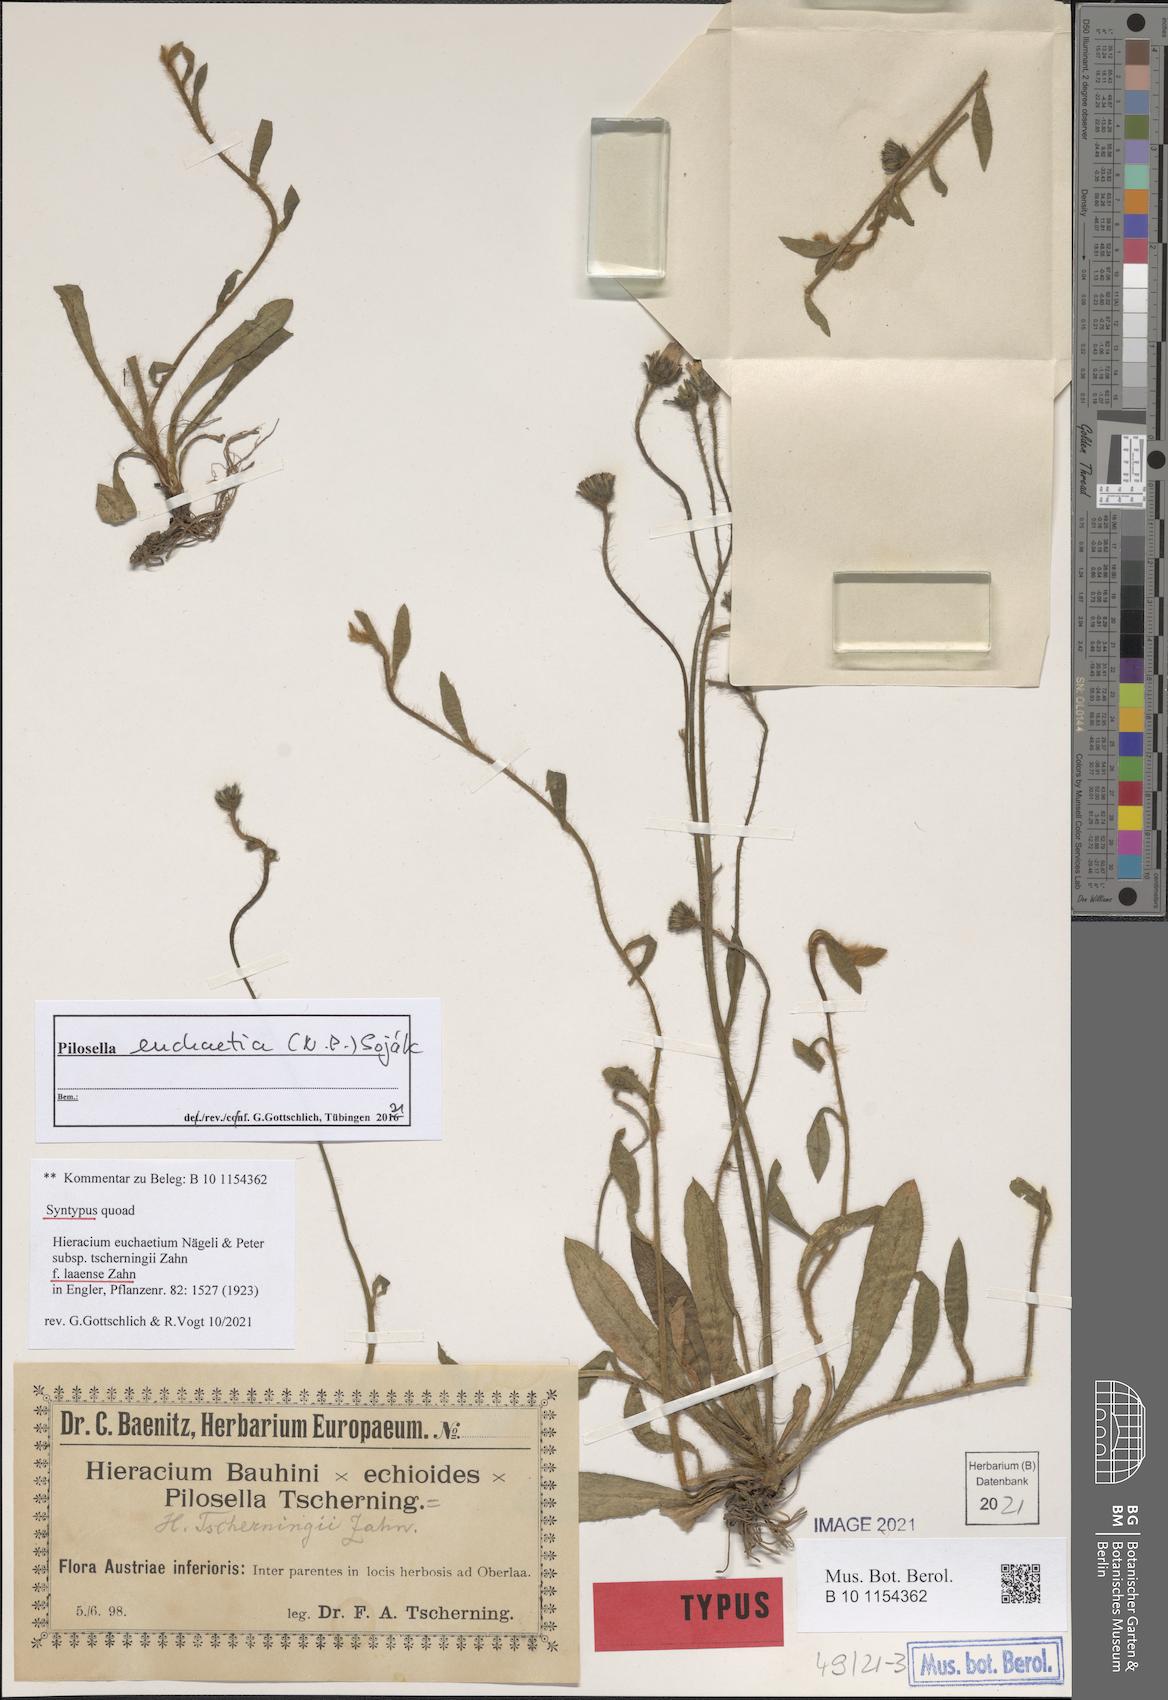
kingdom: Plantae
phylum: Tracheophyta
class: Magnoliopsida
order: Asterales
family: Asteraceae
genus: Pilosella
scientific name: Pilosella euchaetia
